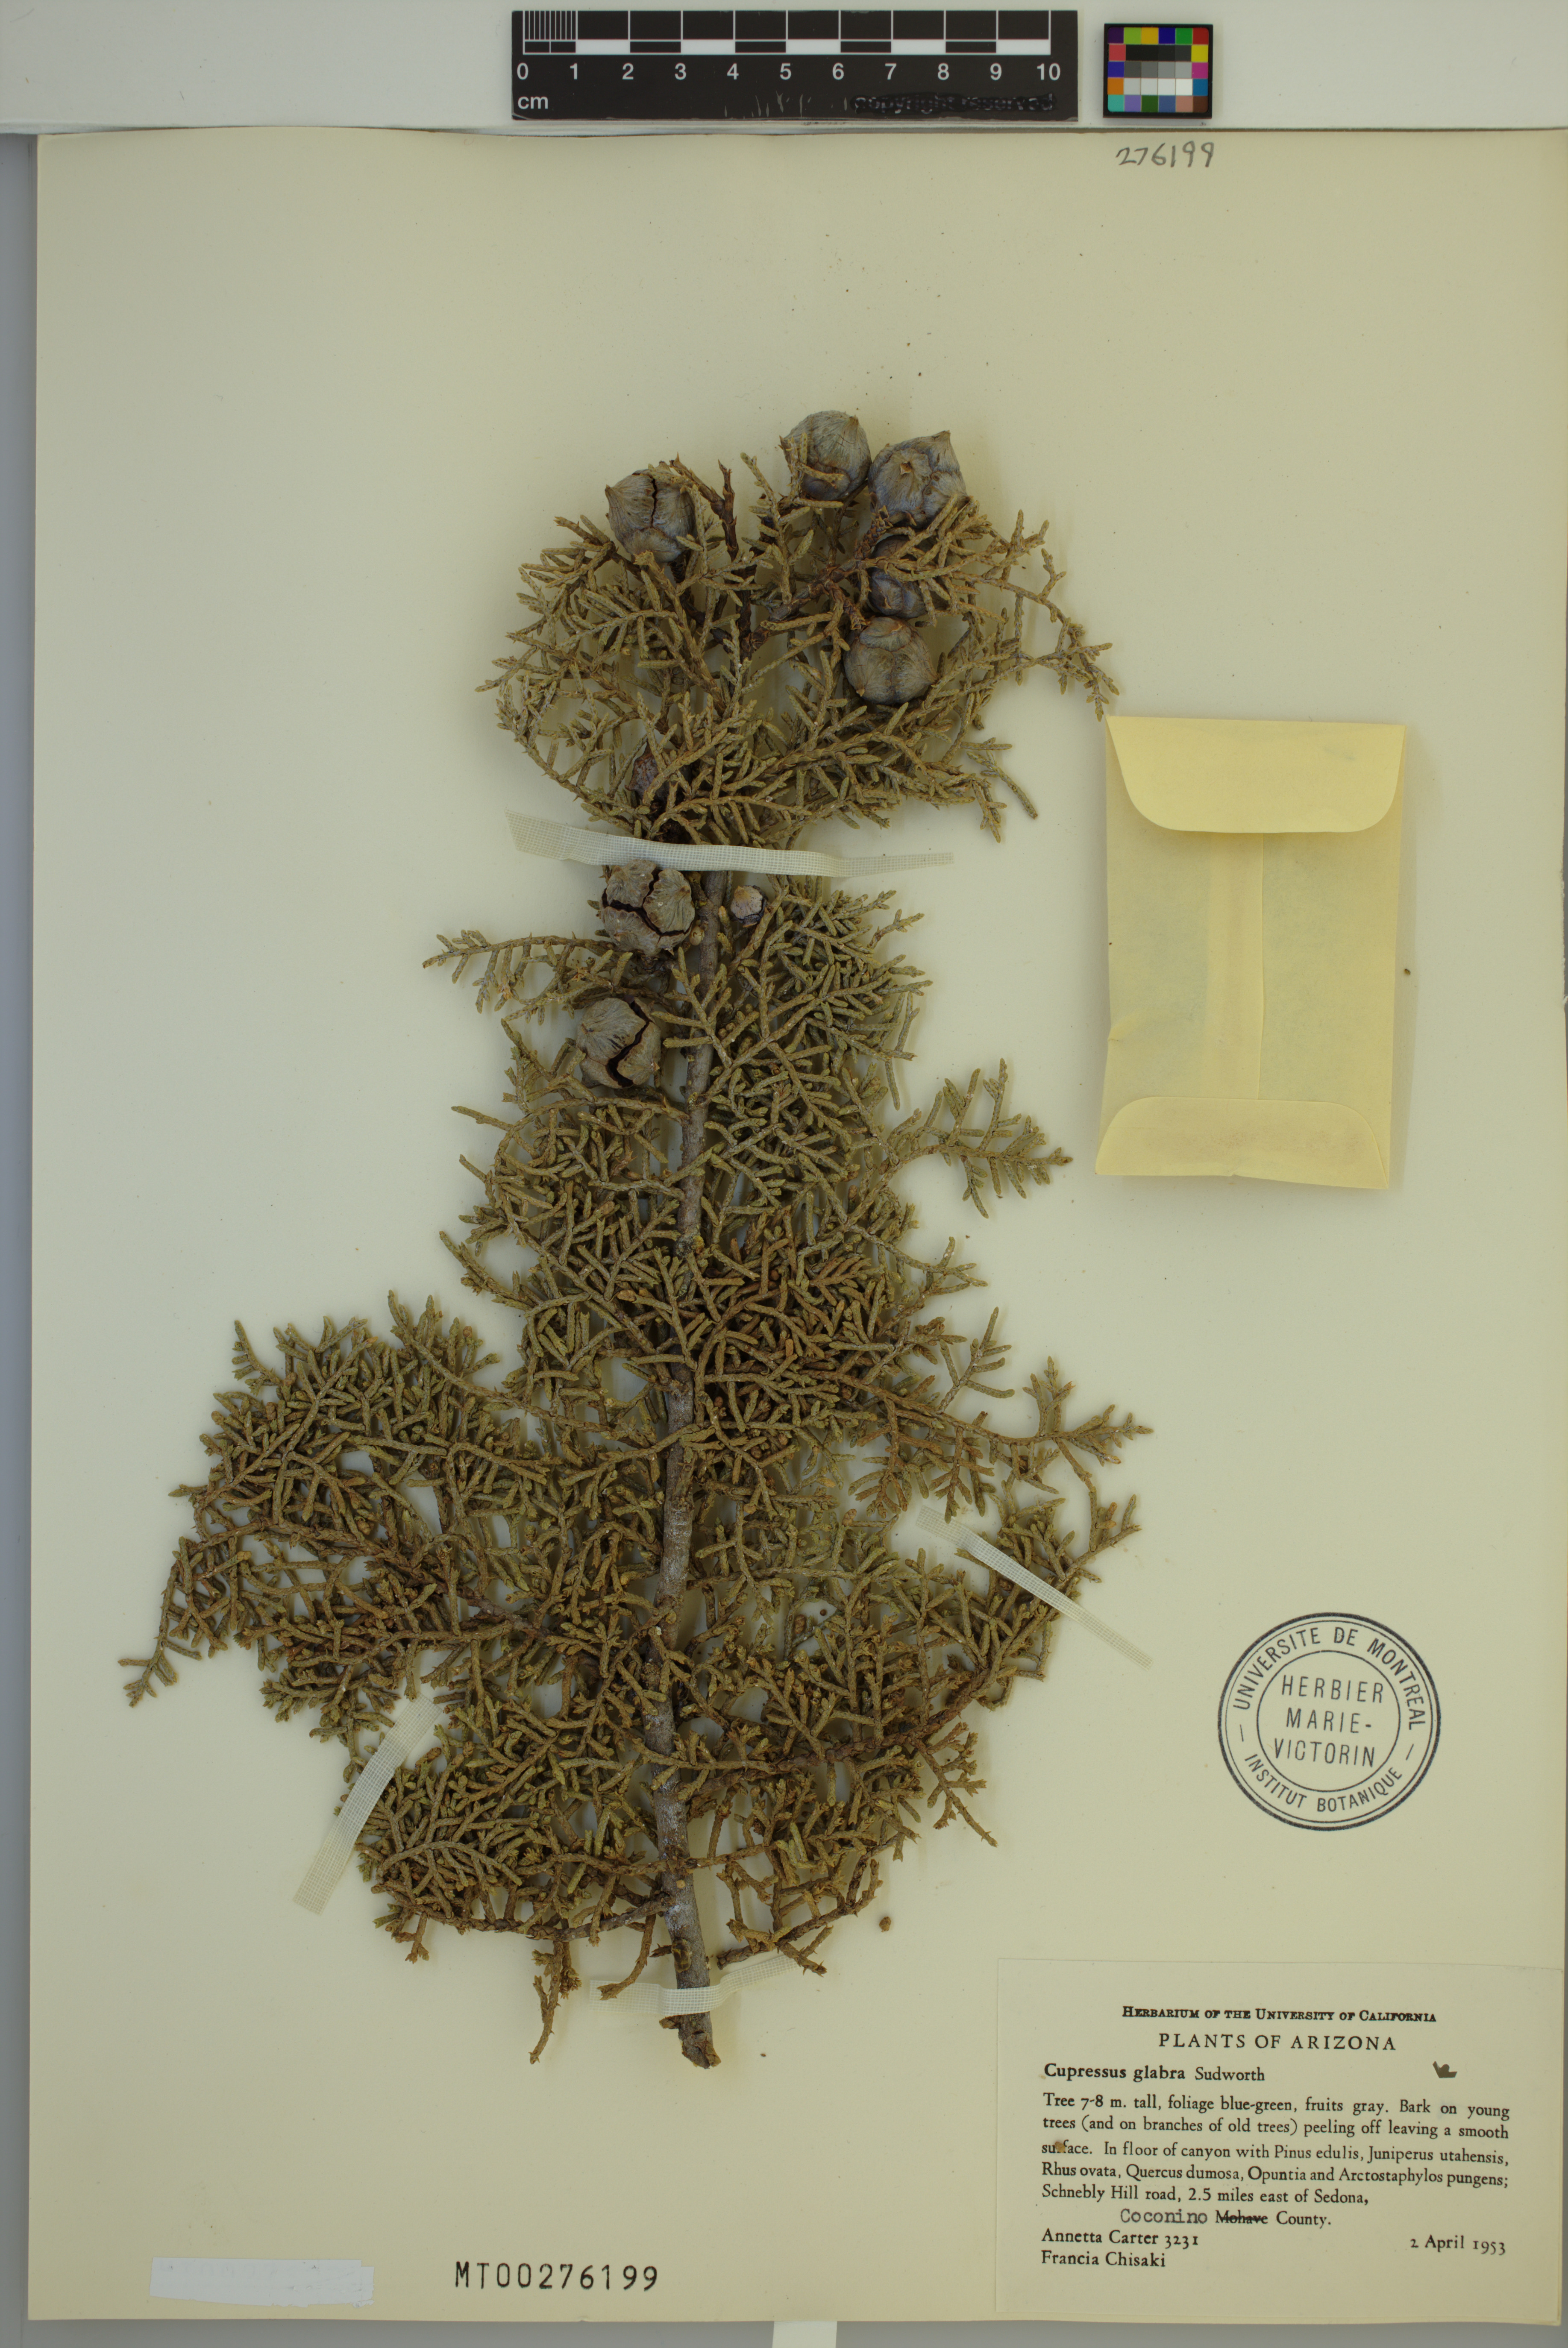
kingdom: Plantae
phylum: Tracheophyta
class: Pinopsida
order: Pinales
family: Cupressaceae
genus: Cupressus
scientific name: Cupressus sargentii
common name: Sargent cypress
